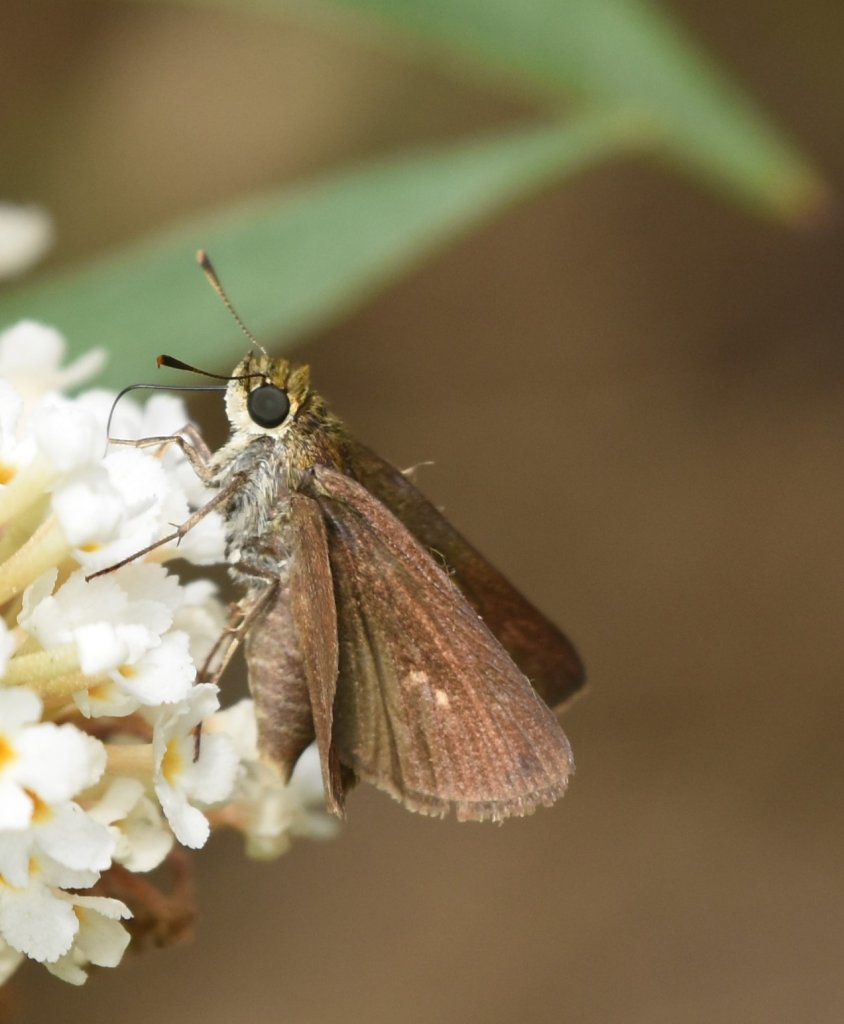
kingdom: Animalia
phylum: Arthropoda
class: Insecta
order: Lepidoptera
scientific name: Lepidoptera
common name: Butterflies
